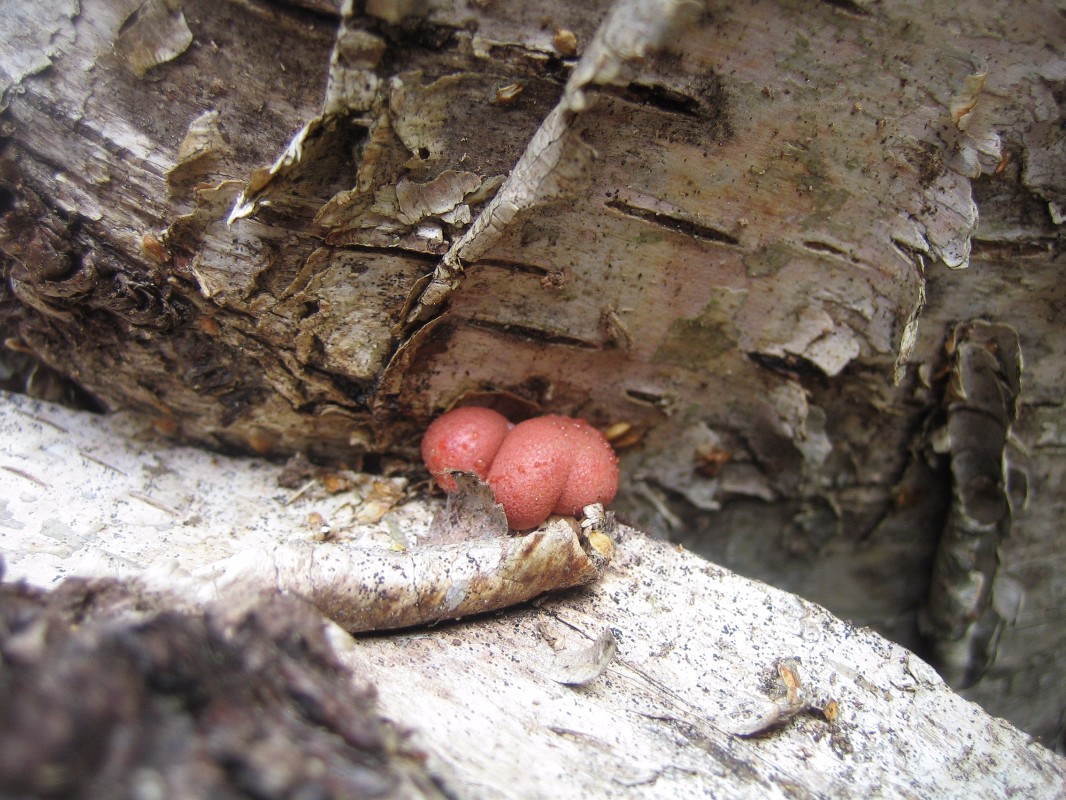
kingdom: Protozoa
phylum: Mycetozoa
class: Myxomycetes
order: Cribrariales
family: Tubiferaceae
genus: Lycogala
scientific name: Lycogala epidendrum
